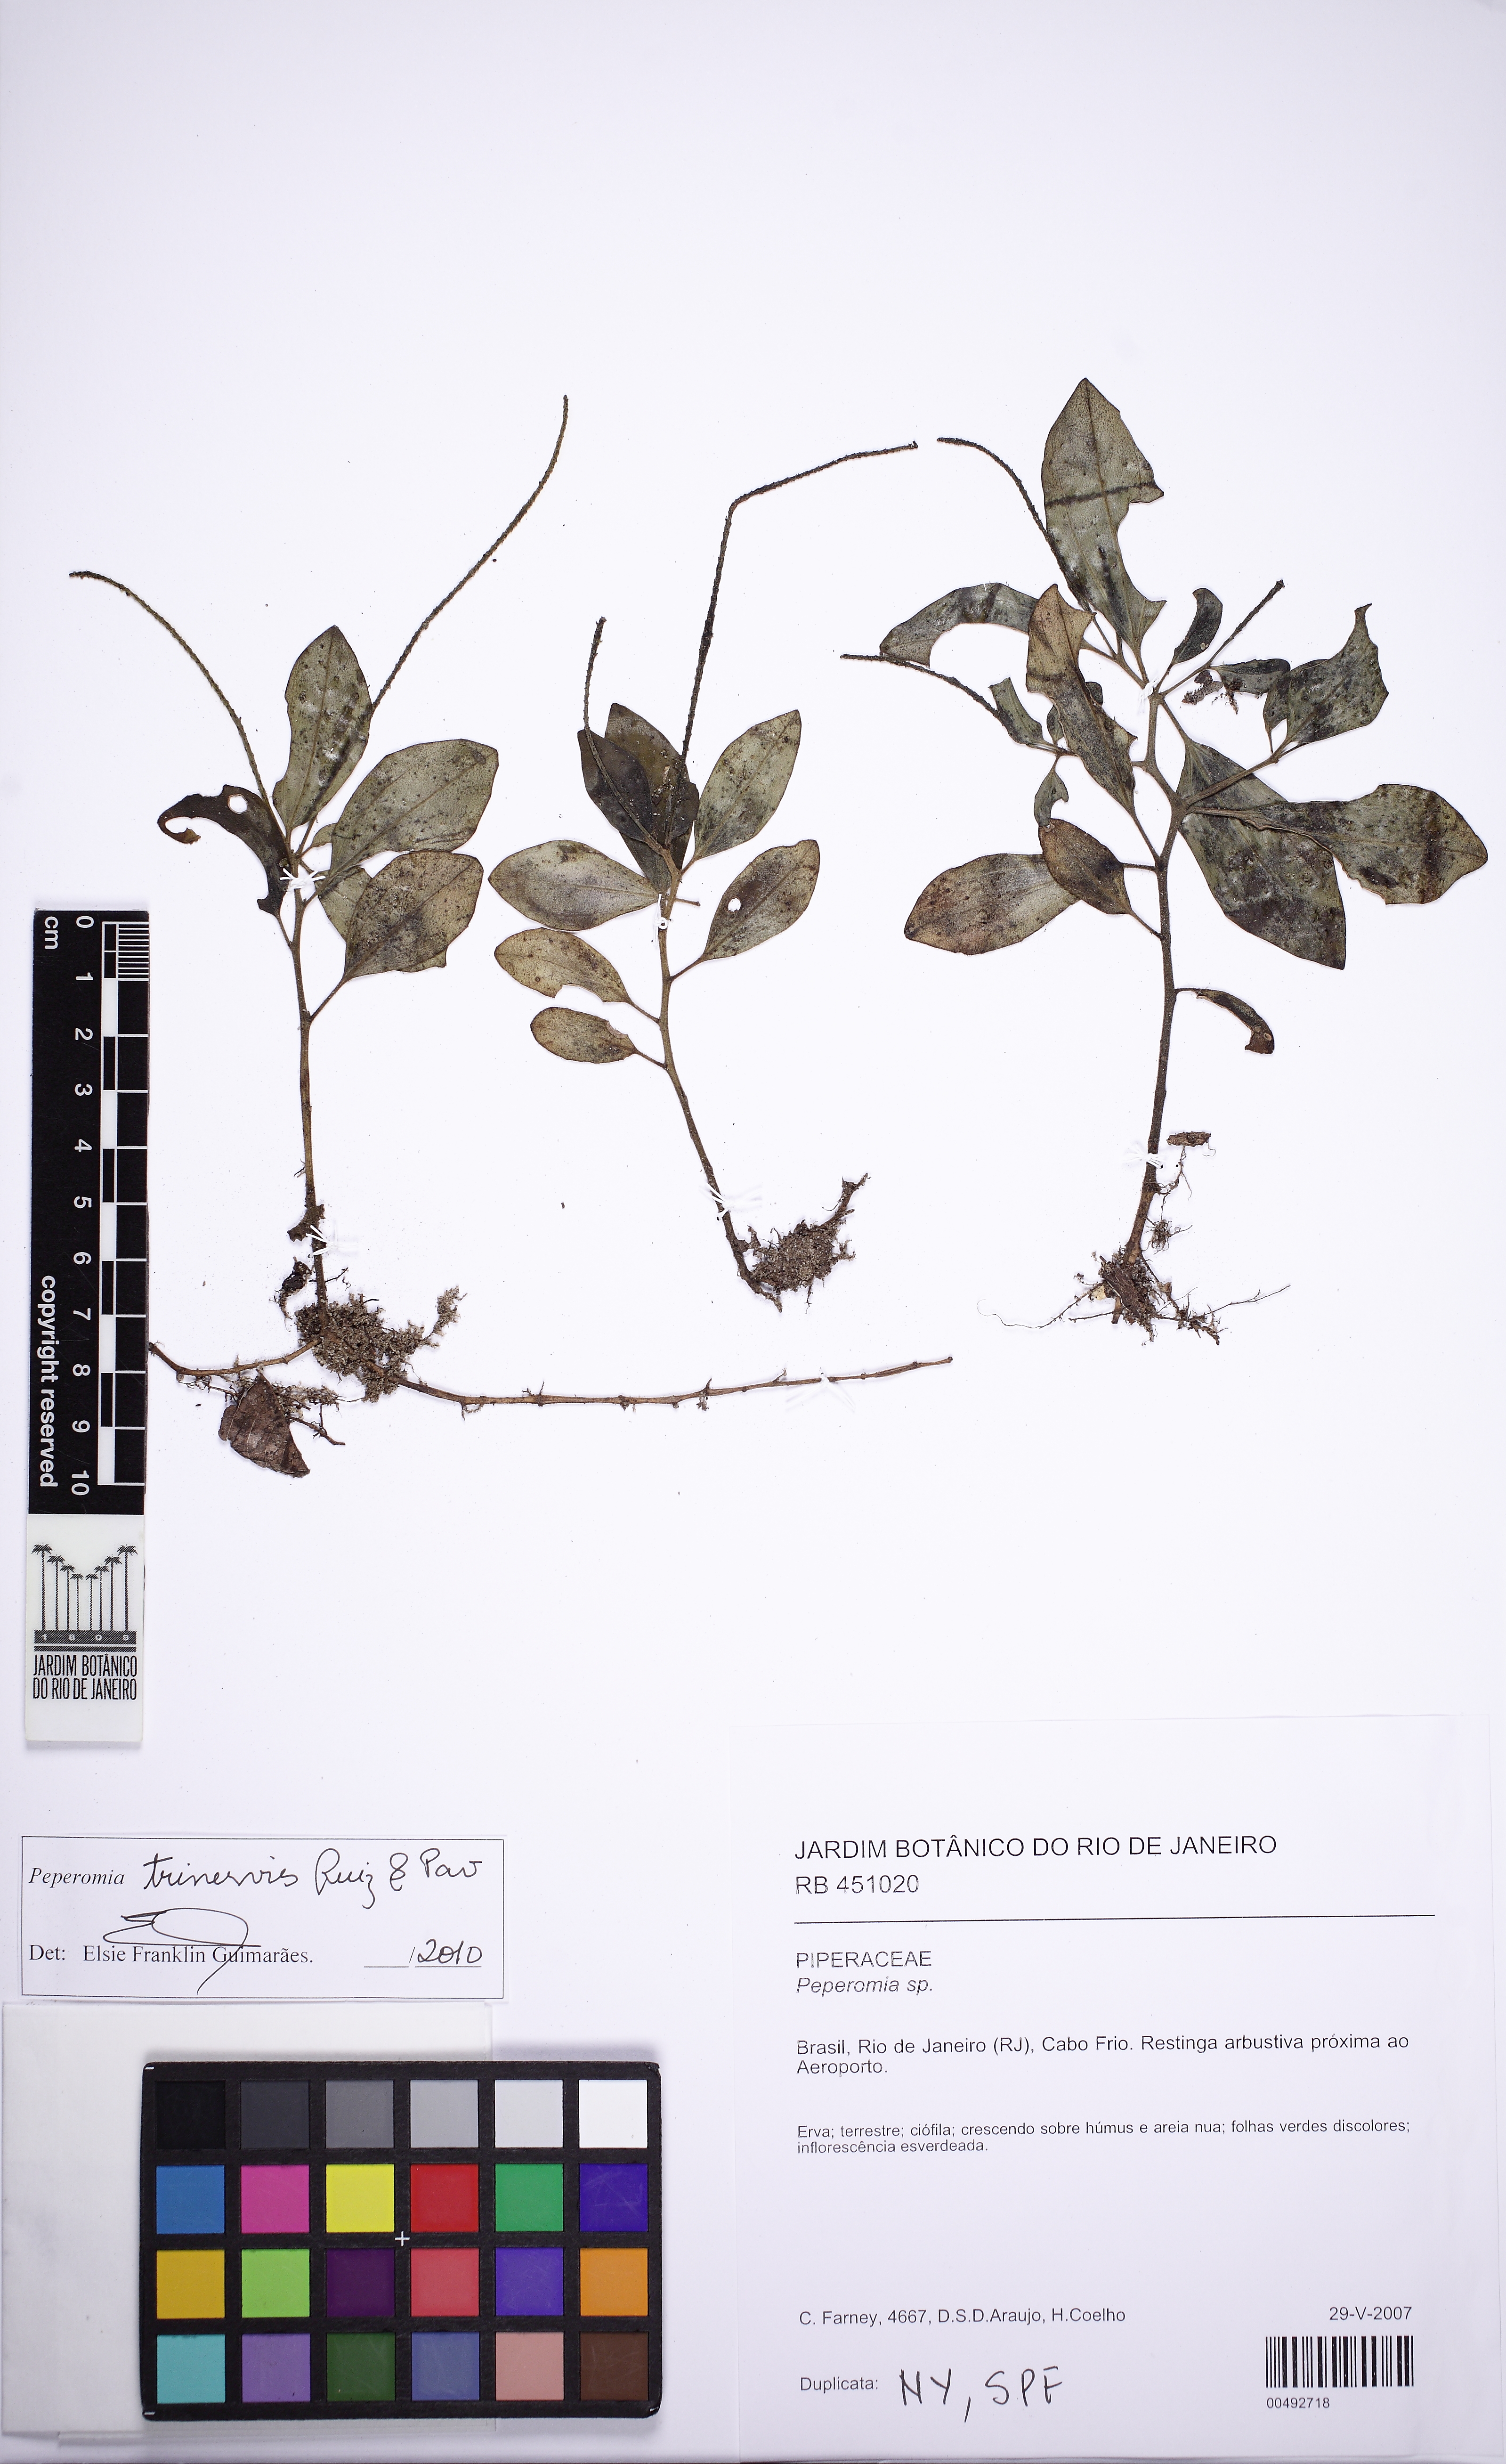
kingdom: Plantae
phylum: Tracheophyta
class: Magnoliopsida
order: Piperales
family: Piperaceae
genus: Peperomia
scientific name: Peperomia trinervis
